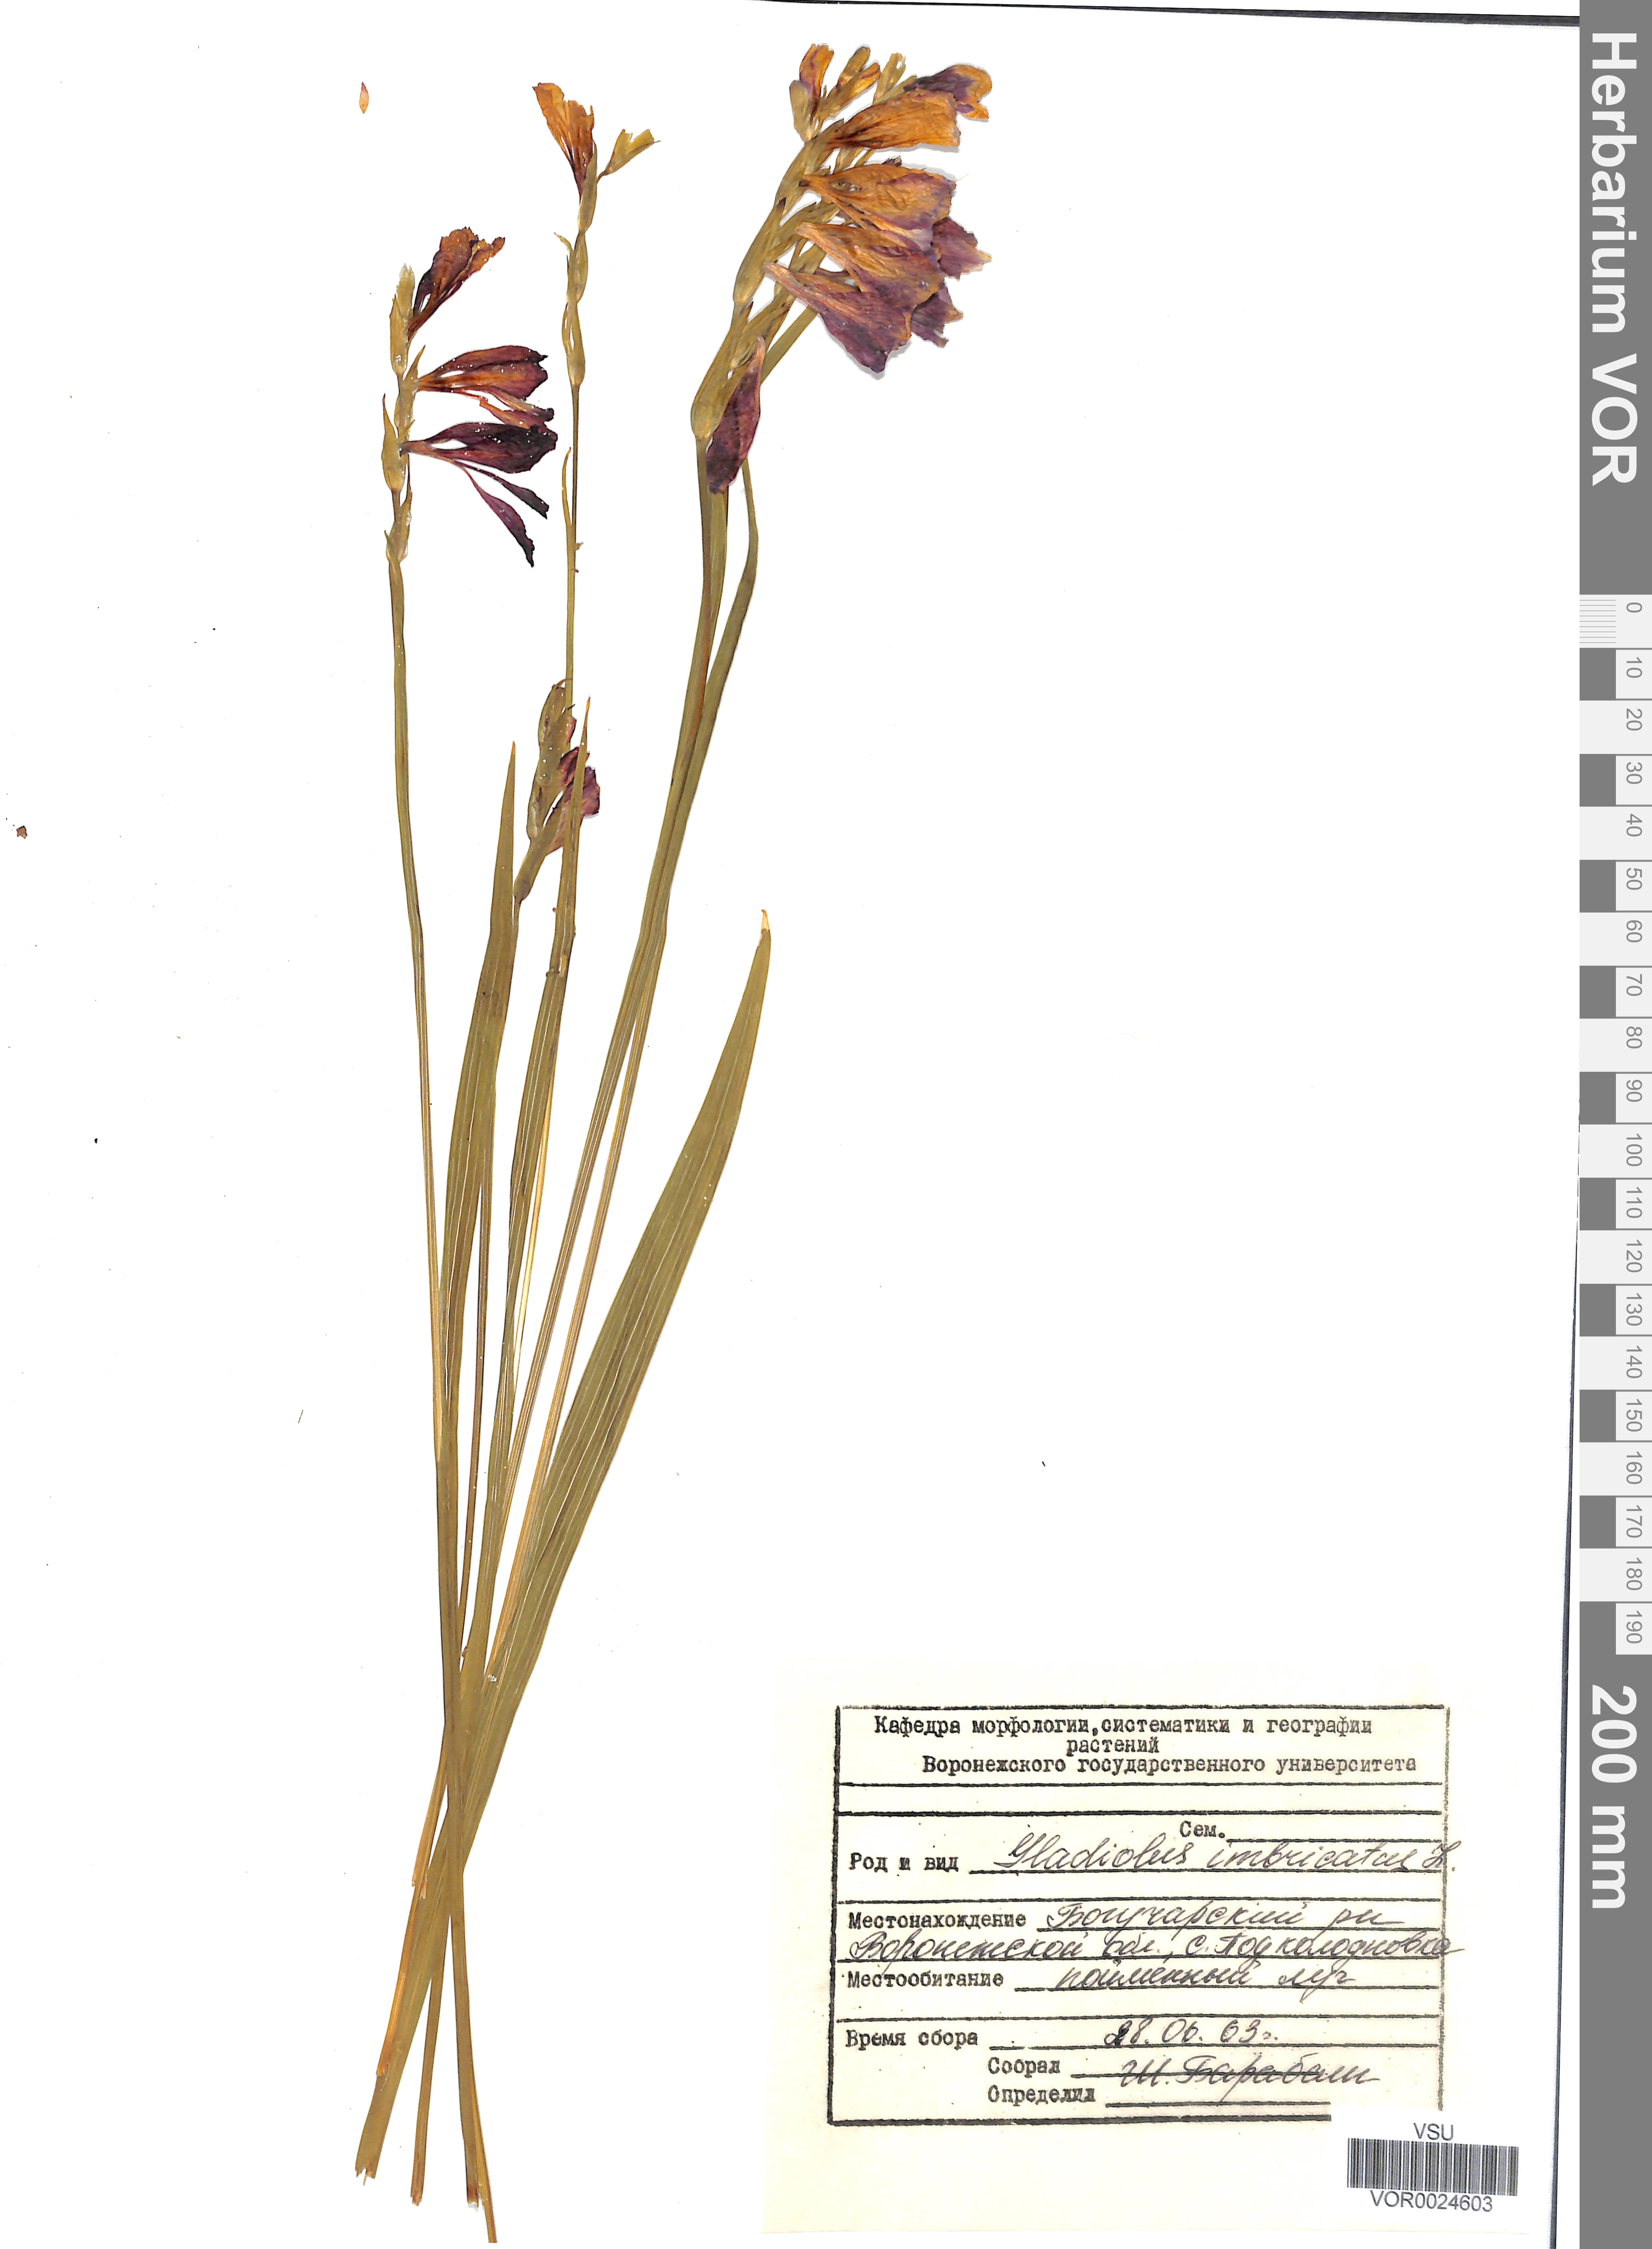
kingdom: Plantae
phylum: Tracheophyta
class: Liliopsida
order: Asparagales
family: Iridaceae
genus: Gladiolus
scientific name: Gladiolus tenuis
